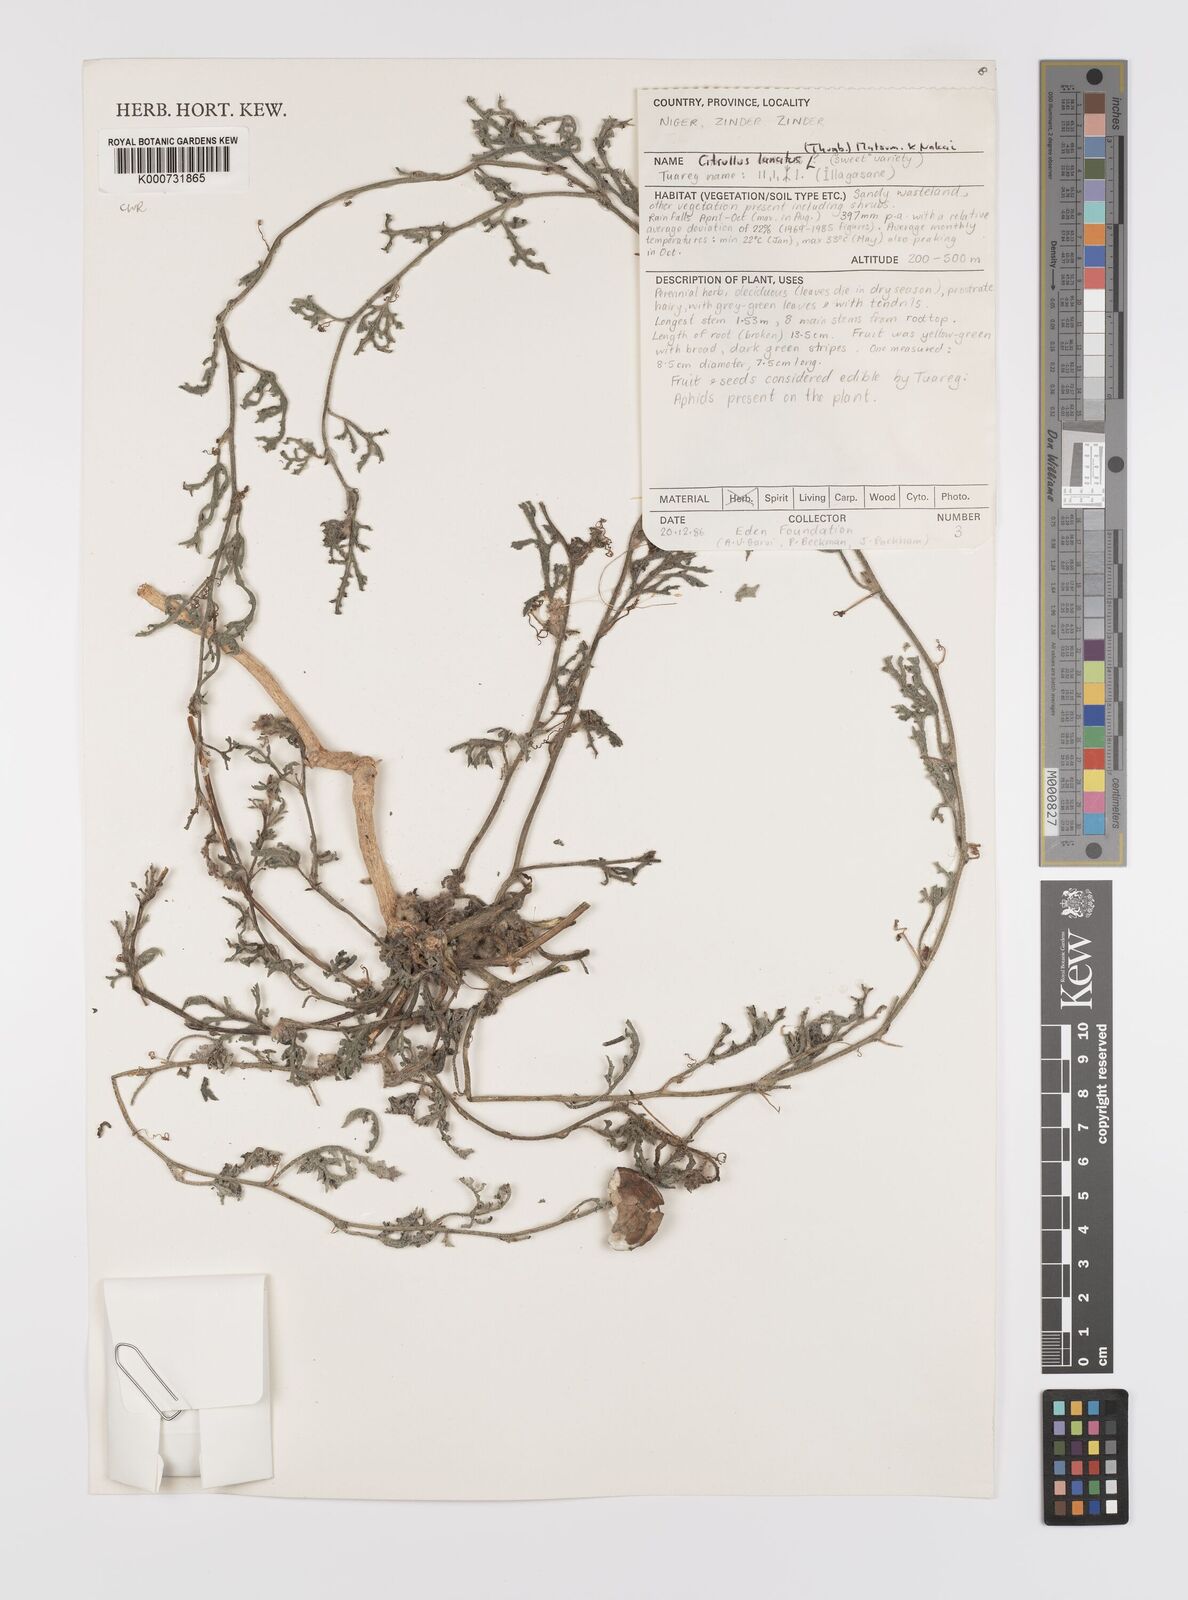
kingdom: Plantae
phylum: Tracheophyta
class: Magnoliopsida
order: Cucurbitales
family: Cucurbitaceae
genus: Citrullus
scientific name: Citrullus lanatus
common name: Watermelon
